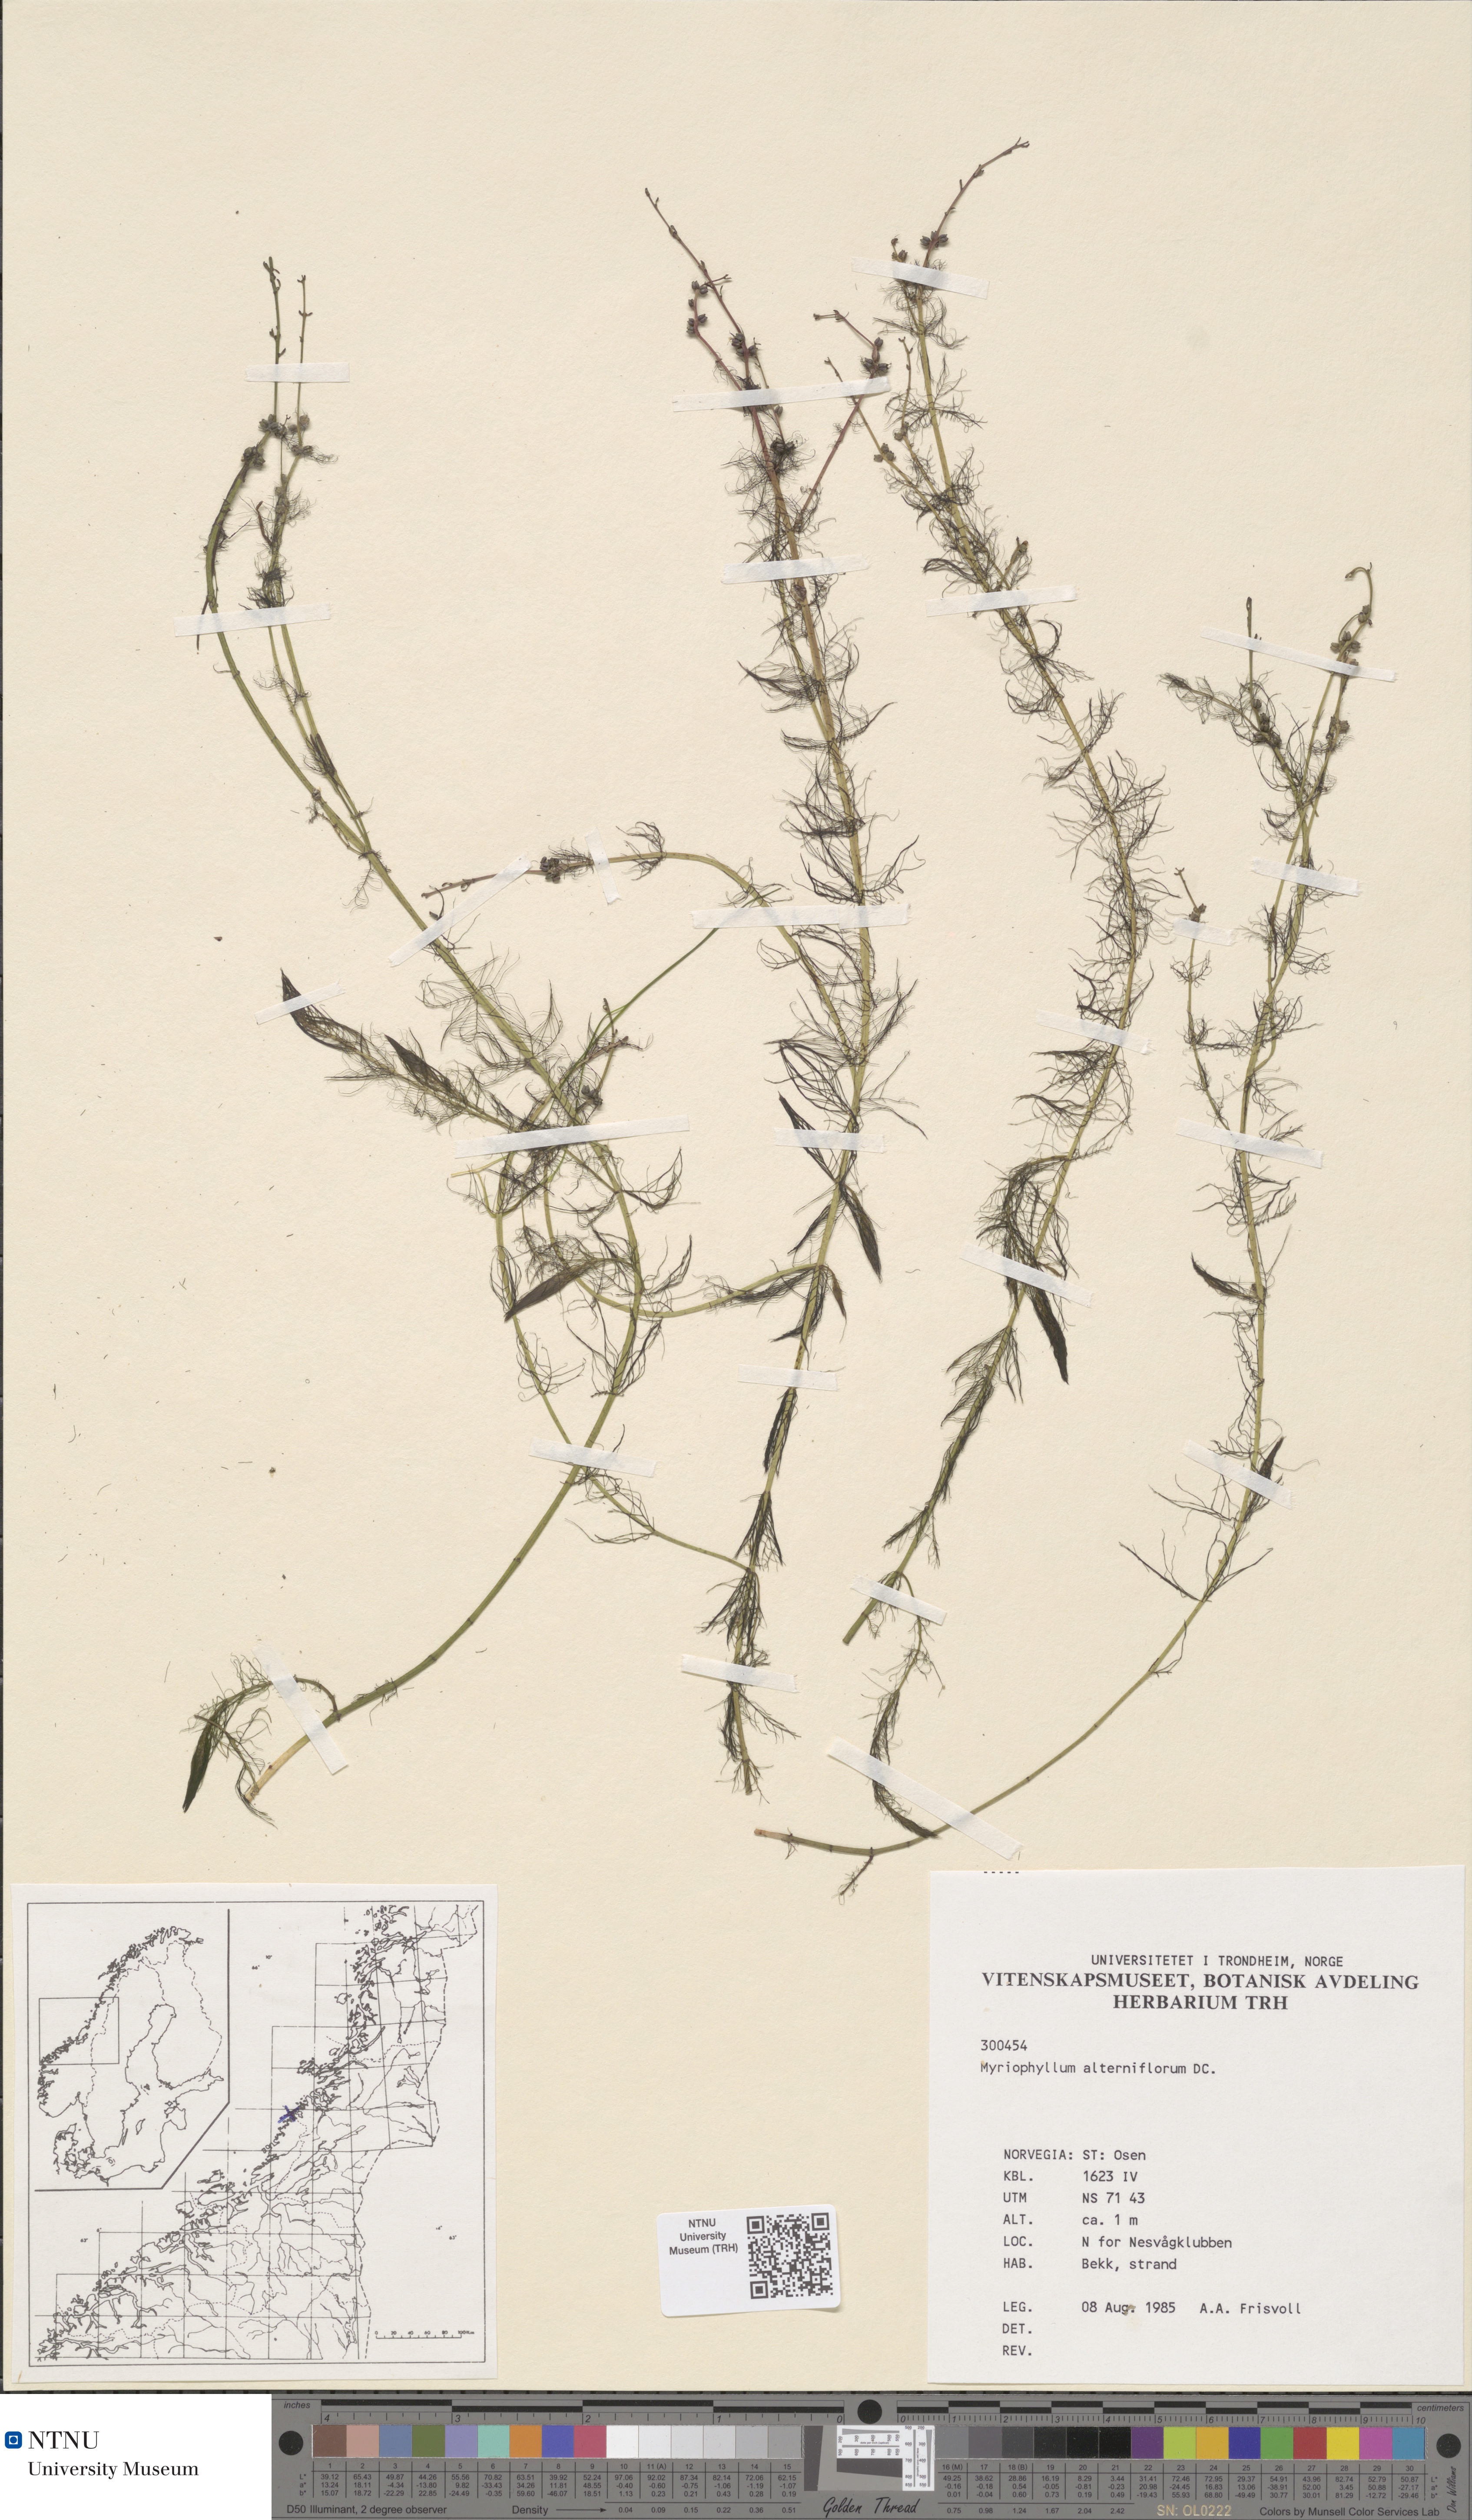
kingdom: Plantae
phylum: Tracheophyta
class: Magnoliopsida
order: Saxifragales
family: Haloragaceae
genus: Myriophyllum
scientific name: Myriophyllum alterniflorum
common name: Alternate water-milfoil
